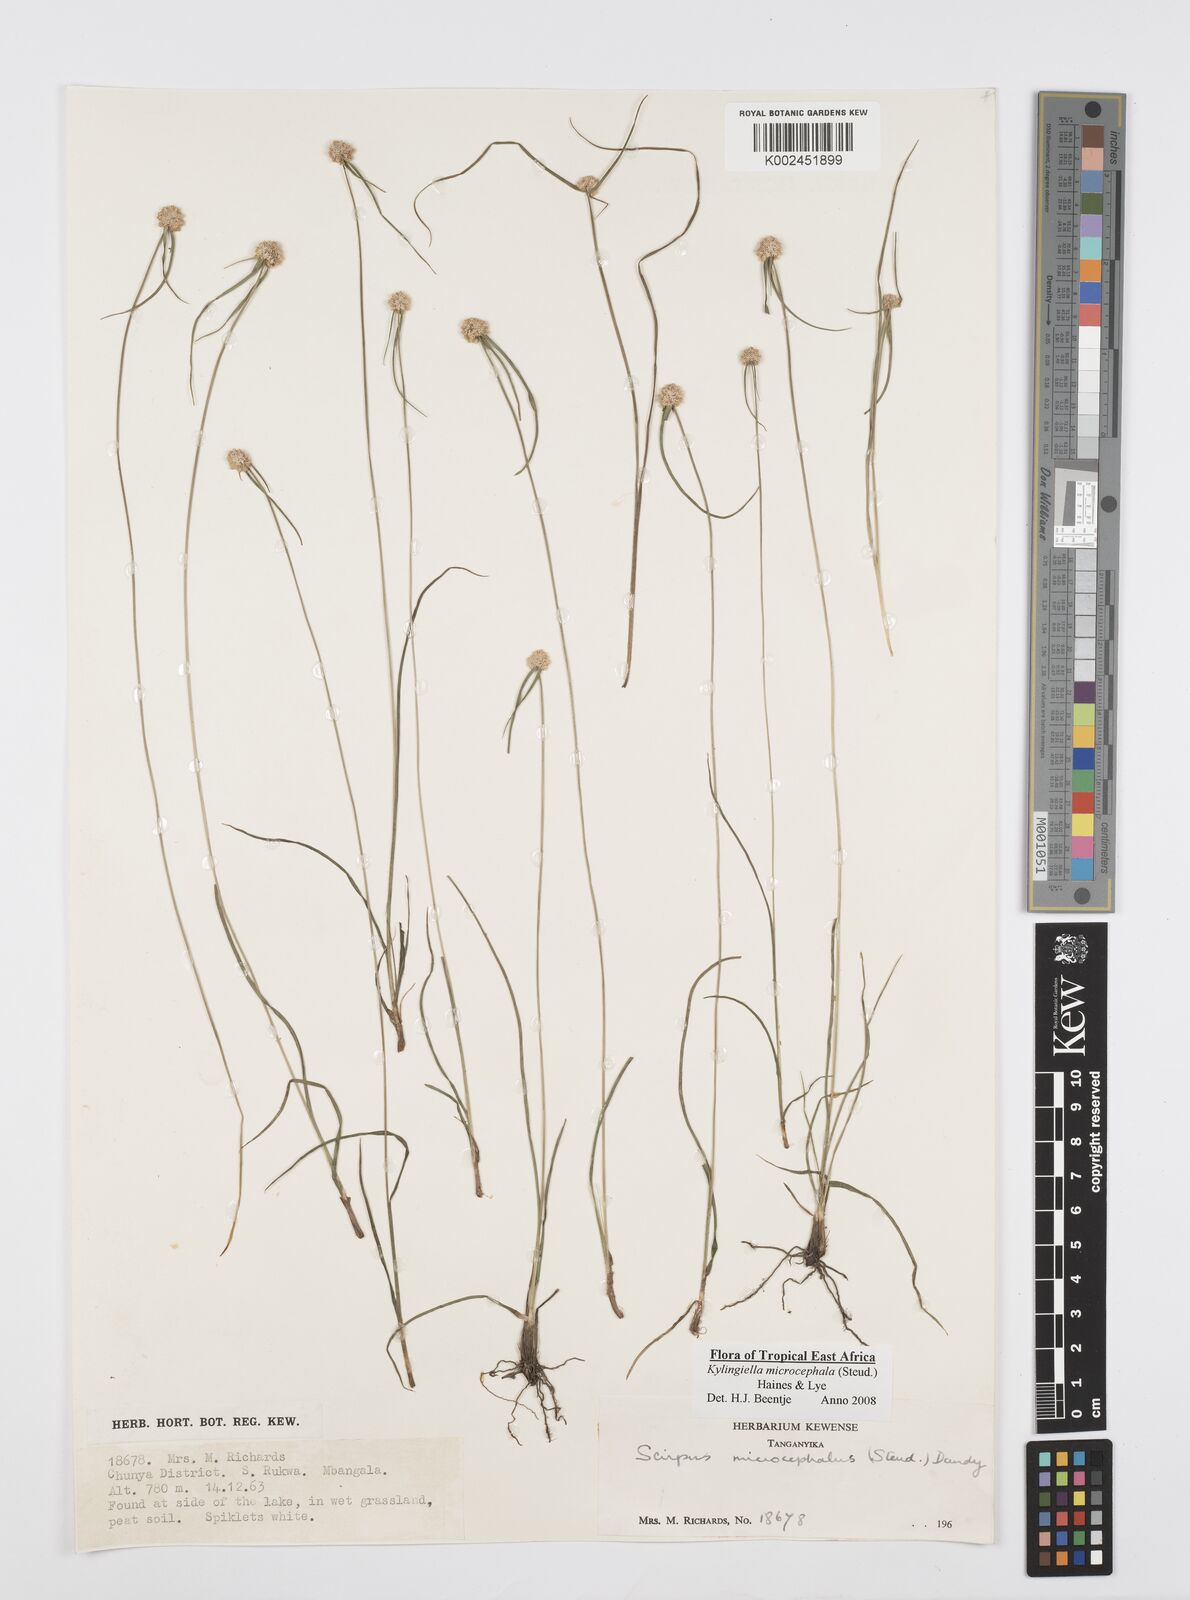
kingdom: Plantae
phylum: Tracheophyta
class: Liliopsida
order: Poales
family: Cyperaceae
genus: Cyperus
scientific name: Cyperus microcephalus
